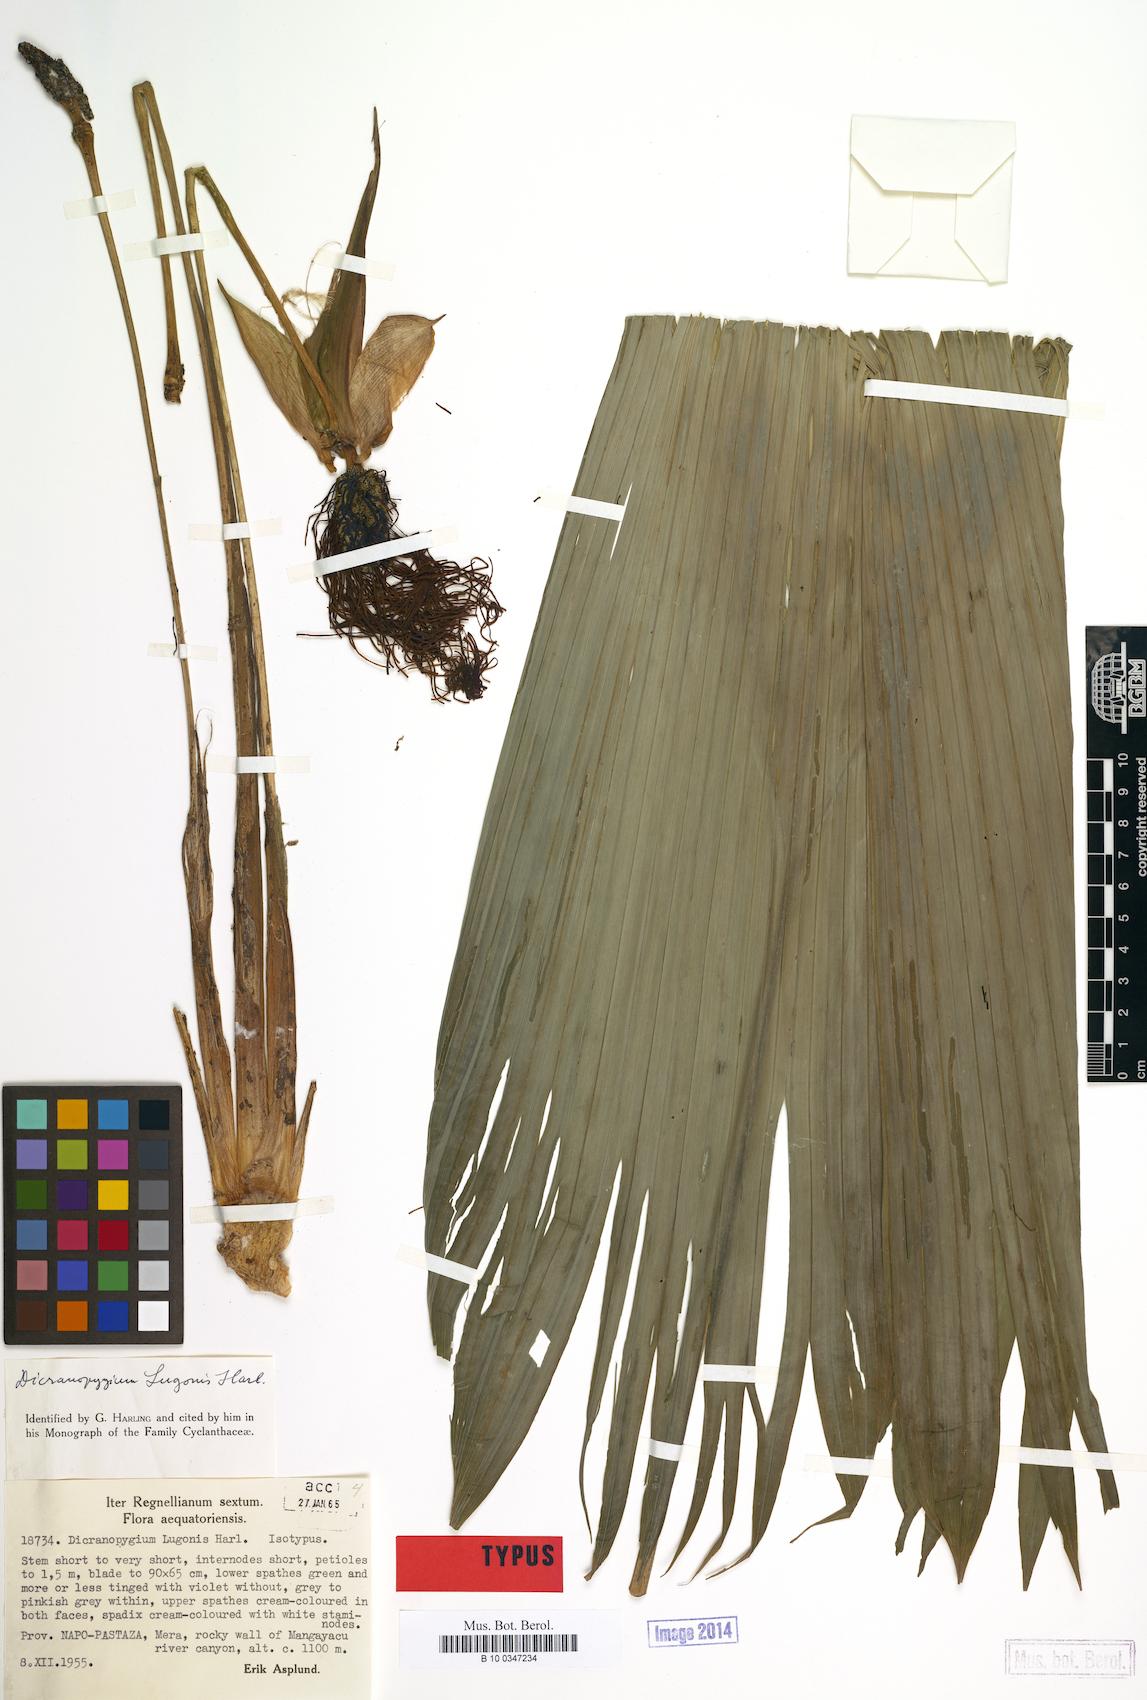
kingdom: Plantae
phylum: Tracheophyta
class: Liliopsida
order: Pandanales
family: Cyclanthaceae
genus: Dicranopygium
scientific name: Dicranopygium lugonis
